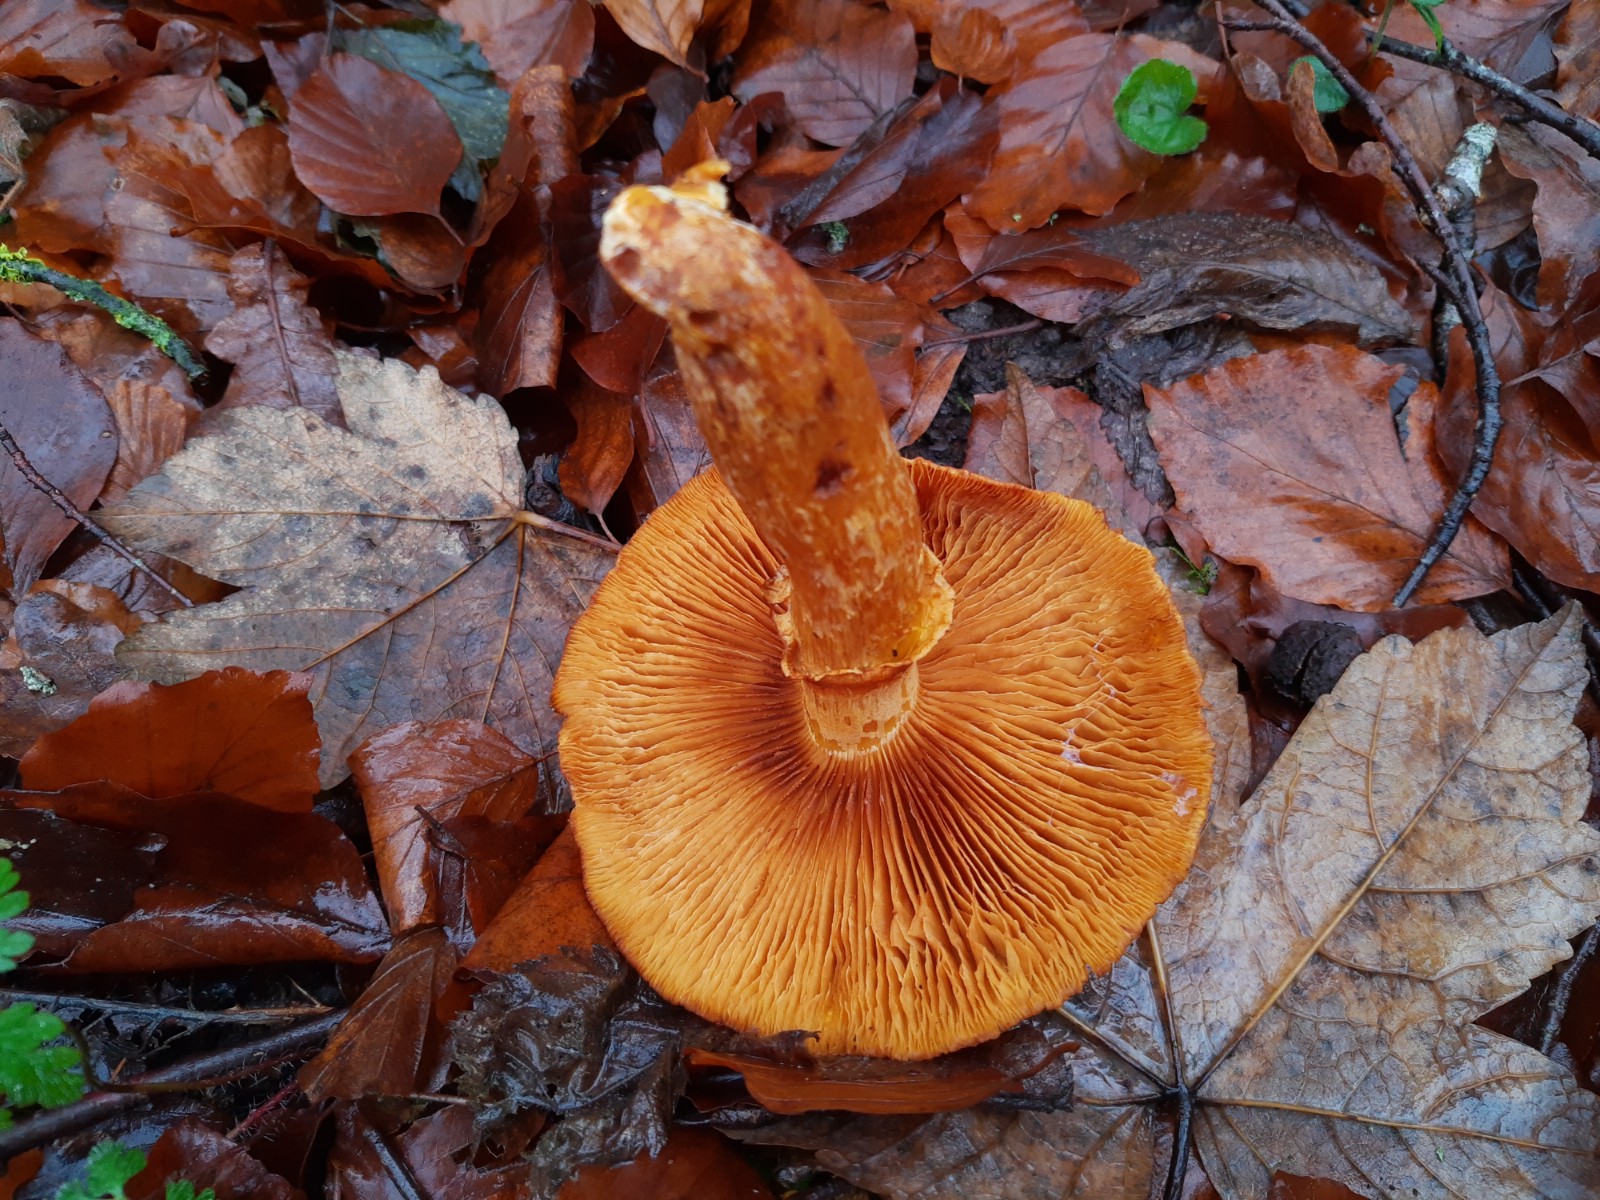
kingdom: Fungi
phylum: Basidiomycota
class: Agaricomycetes
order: Agaricales
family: Hymenogastraceae
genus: Gymnopilus
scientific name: Gymnopilus spectabilis
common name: fibret flammehat
